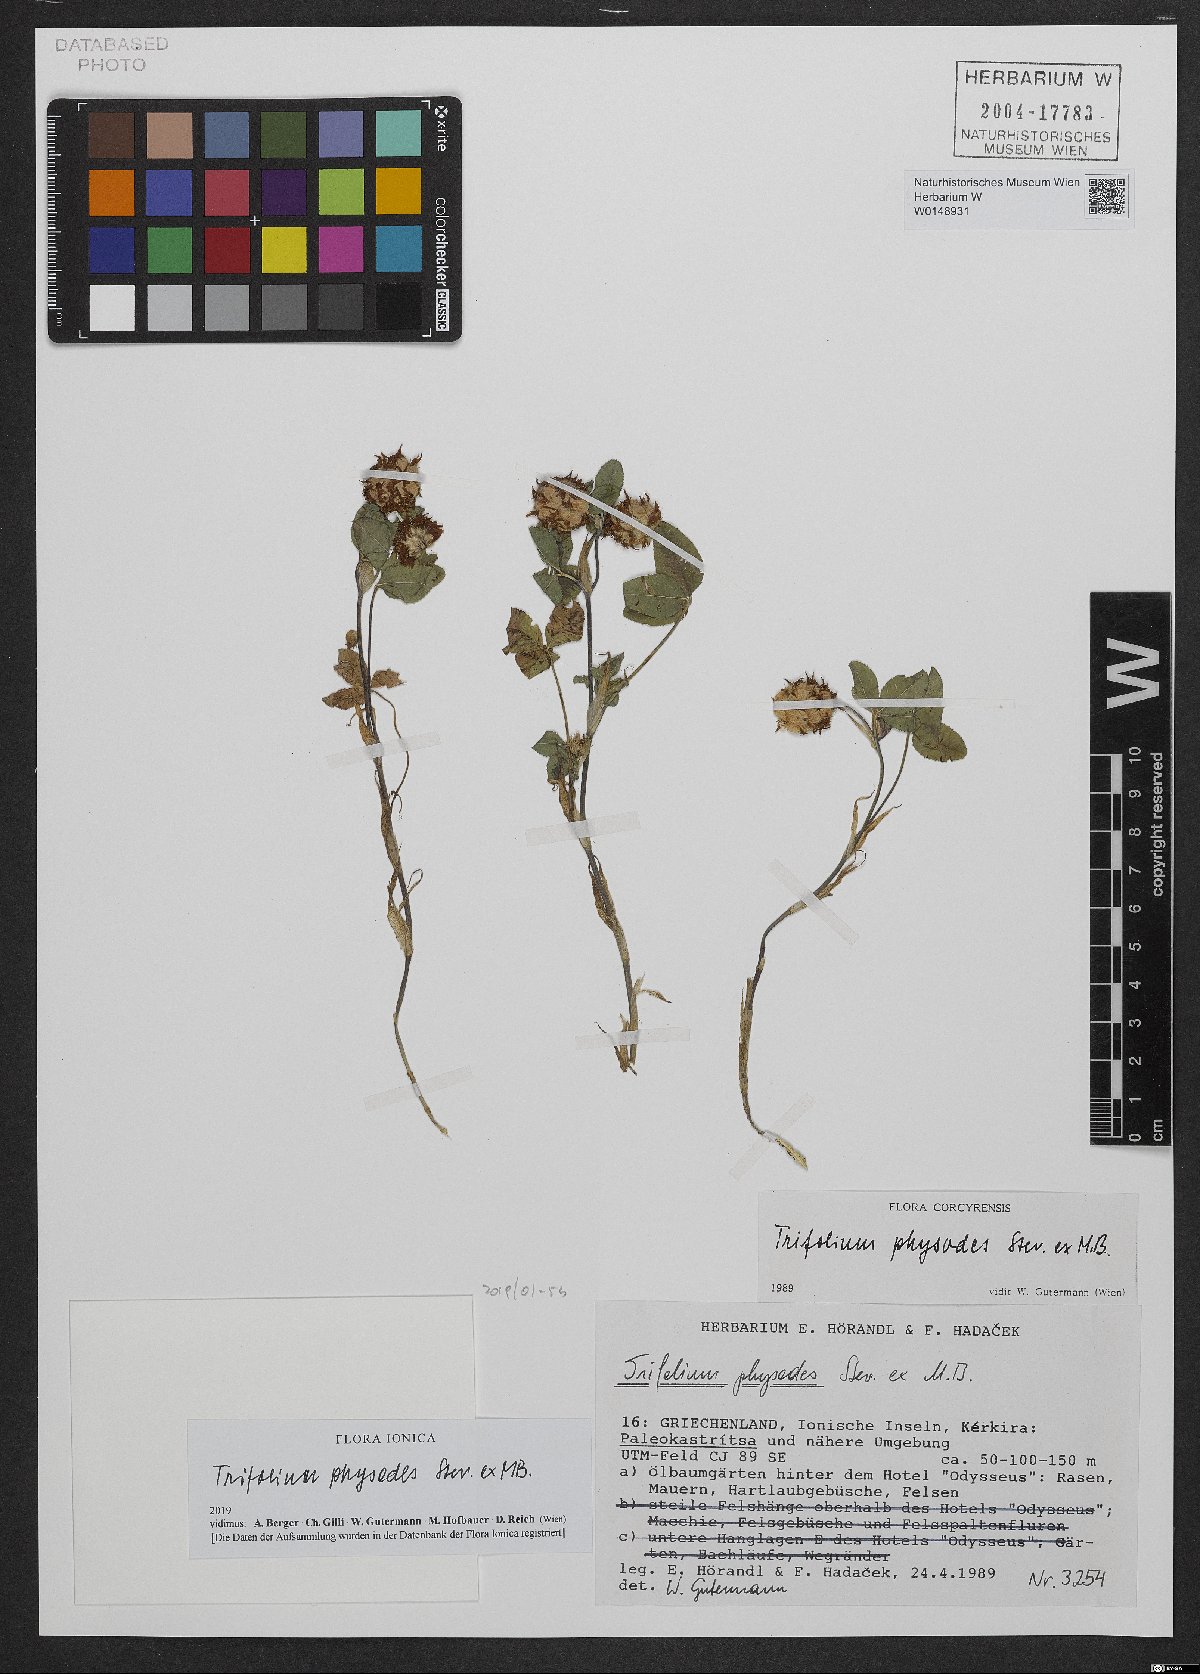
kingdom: Plantae
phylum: Tracheophyta
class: Magnoliopsida
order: Fabales
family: Fabaceae
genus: Trifolium
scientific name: Trifolium physodes
